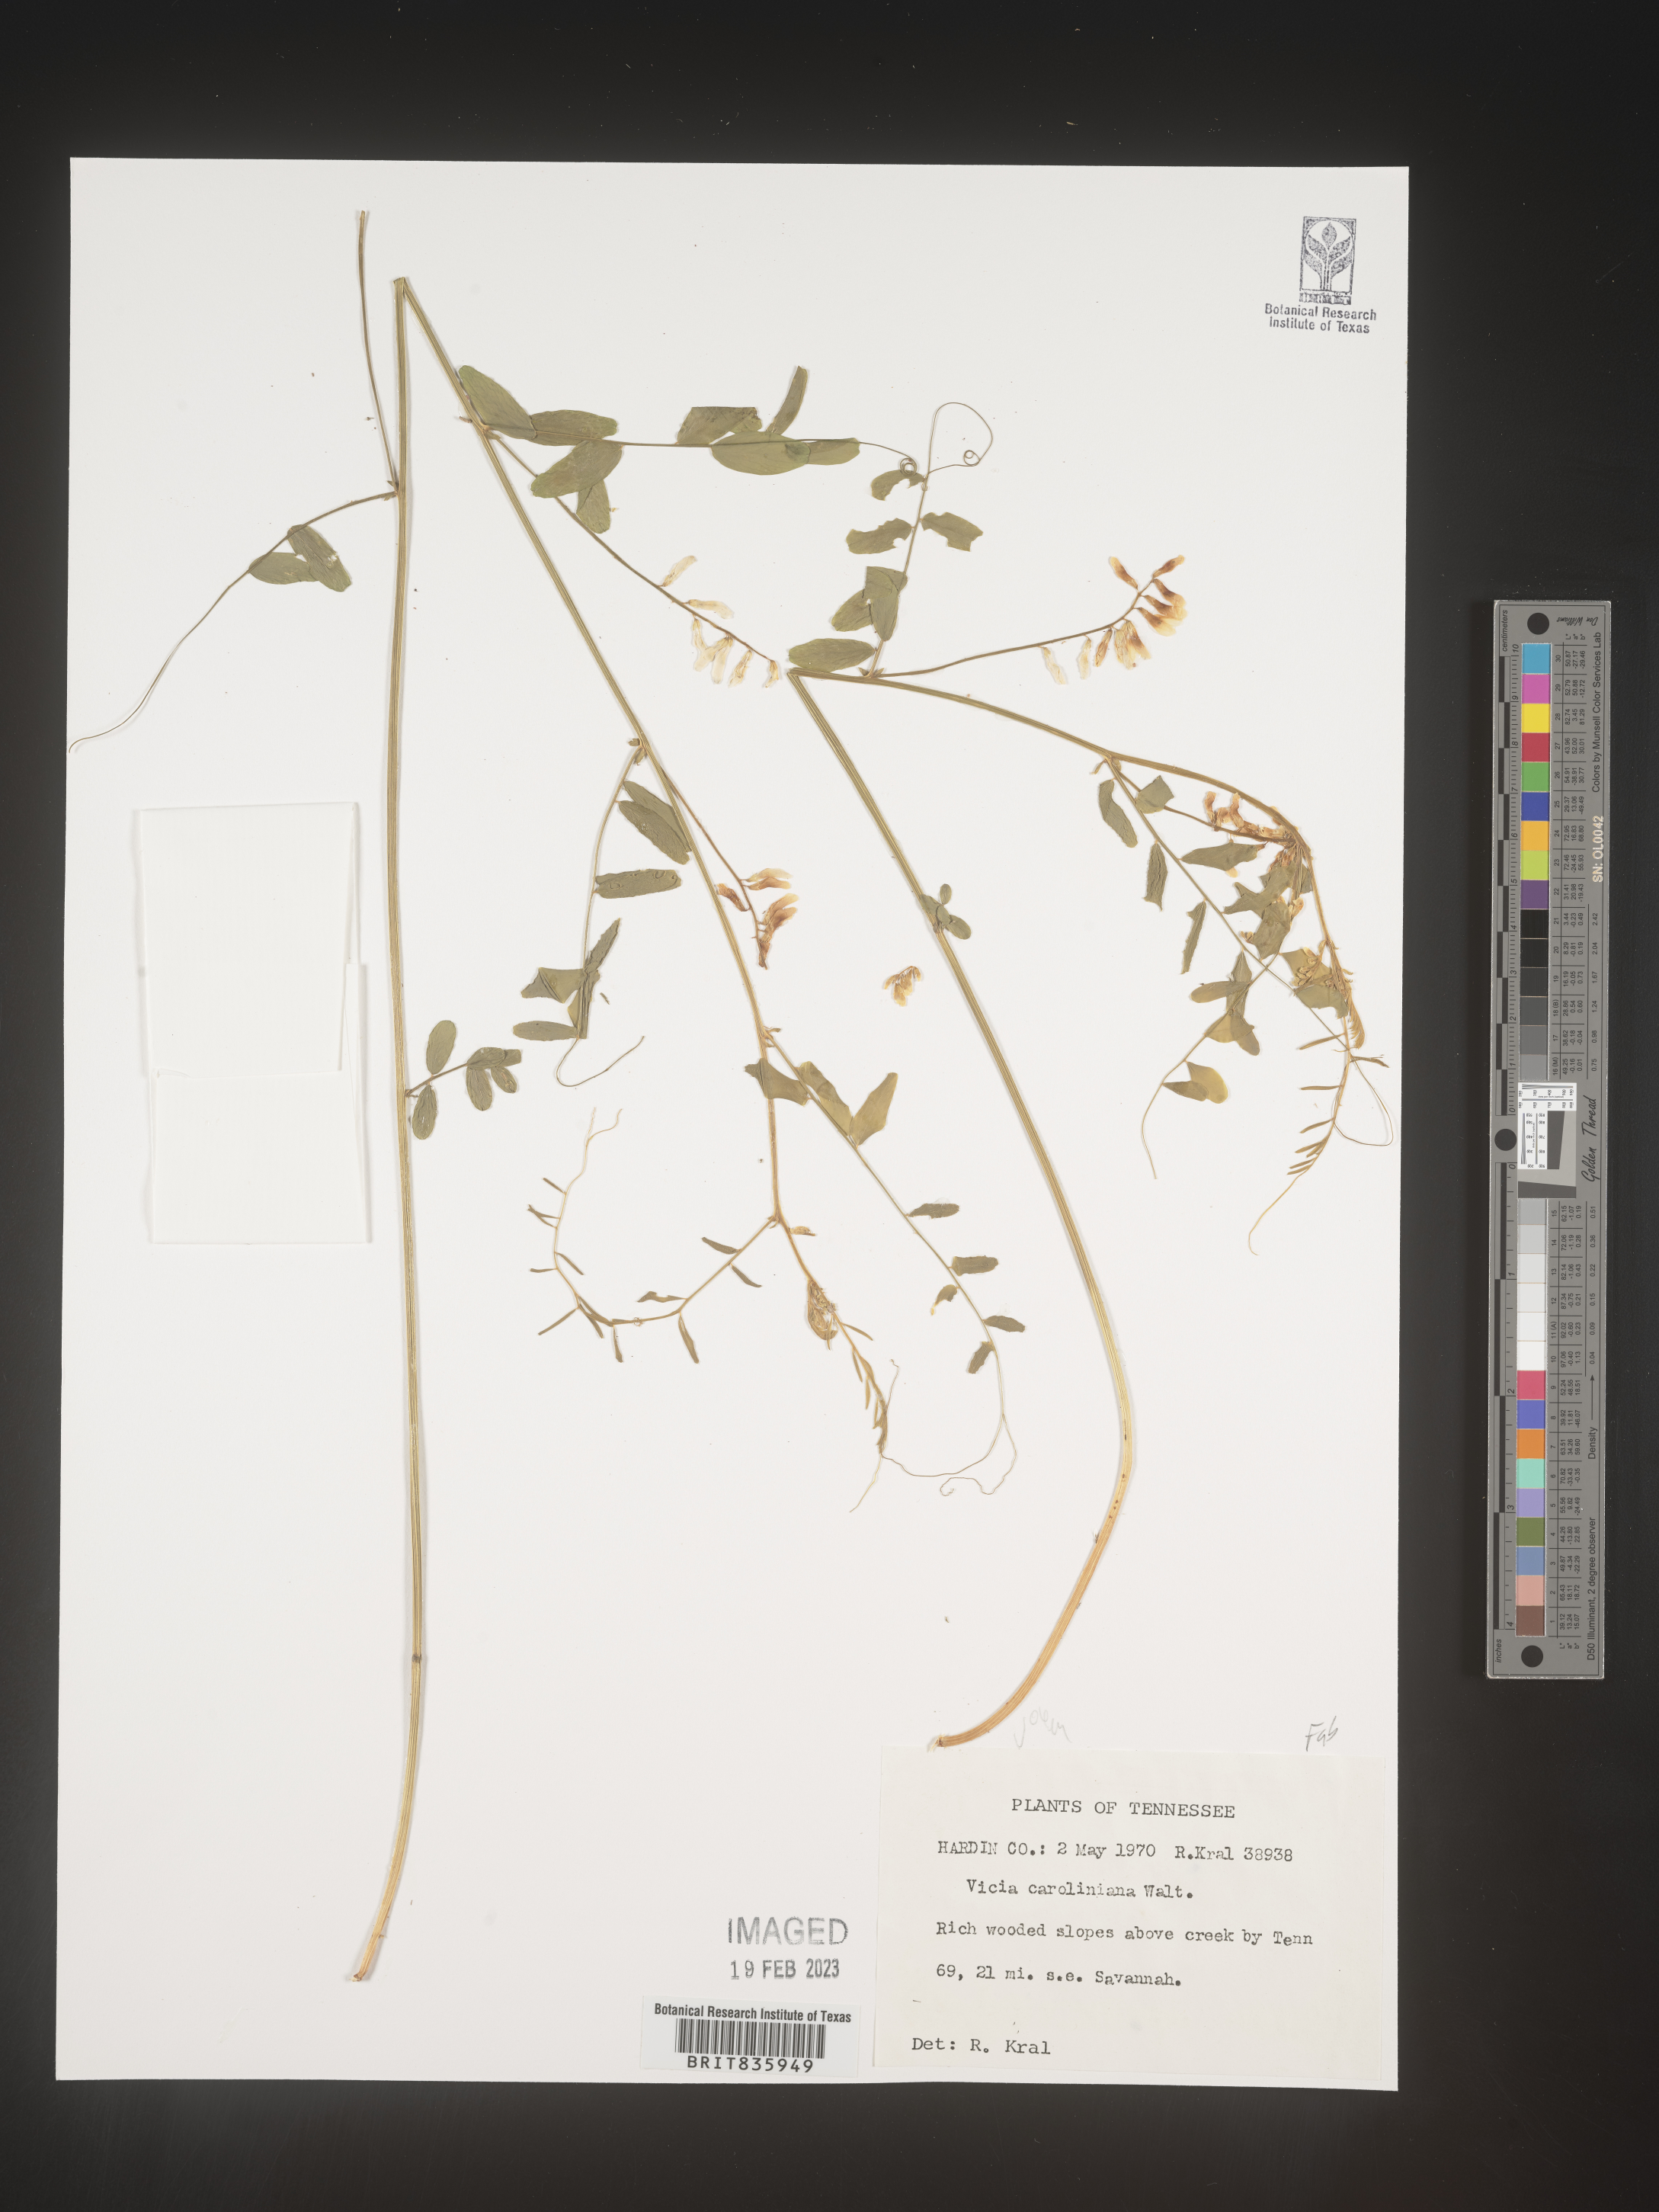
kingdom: Plantae
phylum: Tracheophyta
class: Magnoliopsida
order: Fabales
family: Fabaceae
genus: Vicia
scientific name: Vicia caroliniana
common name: Carolina vetch
